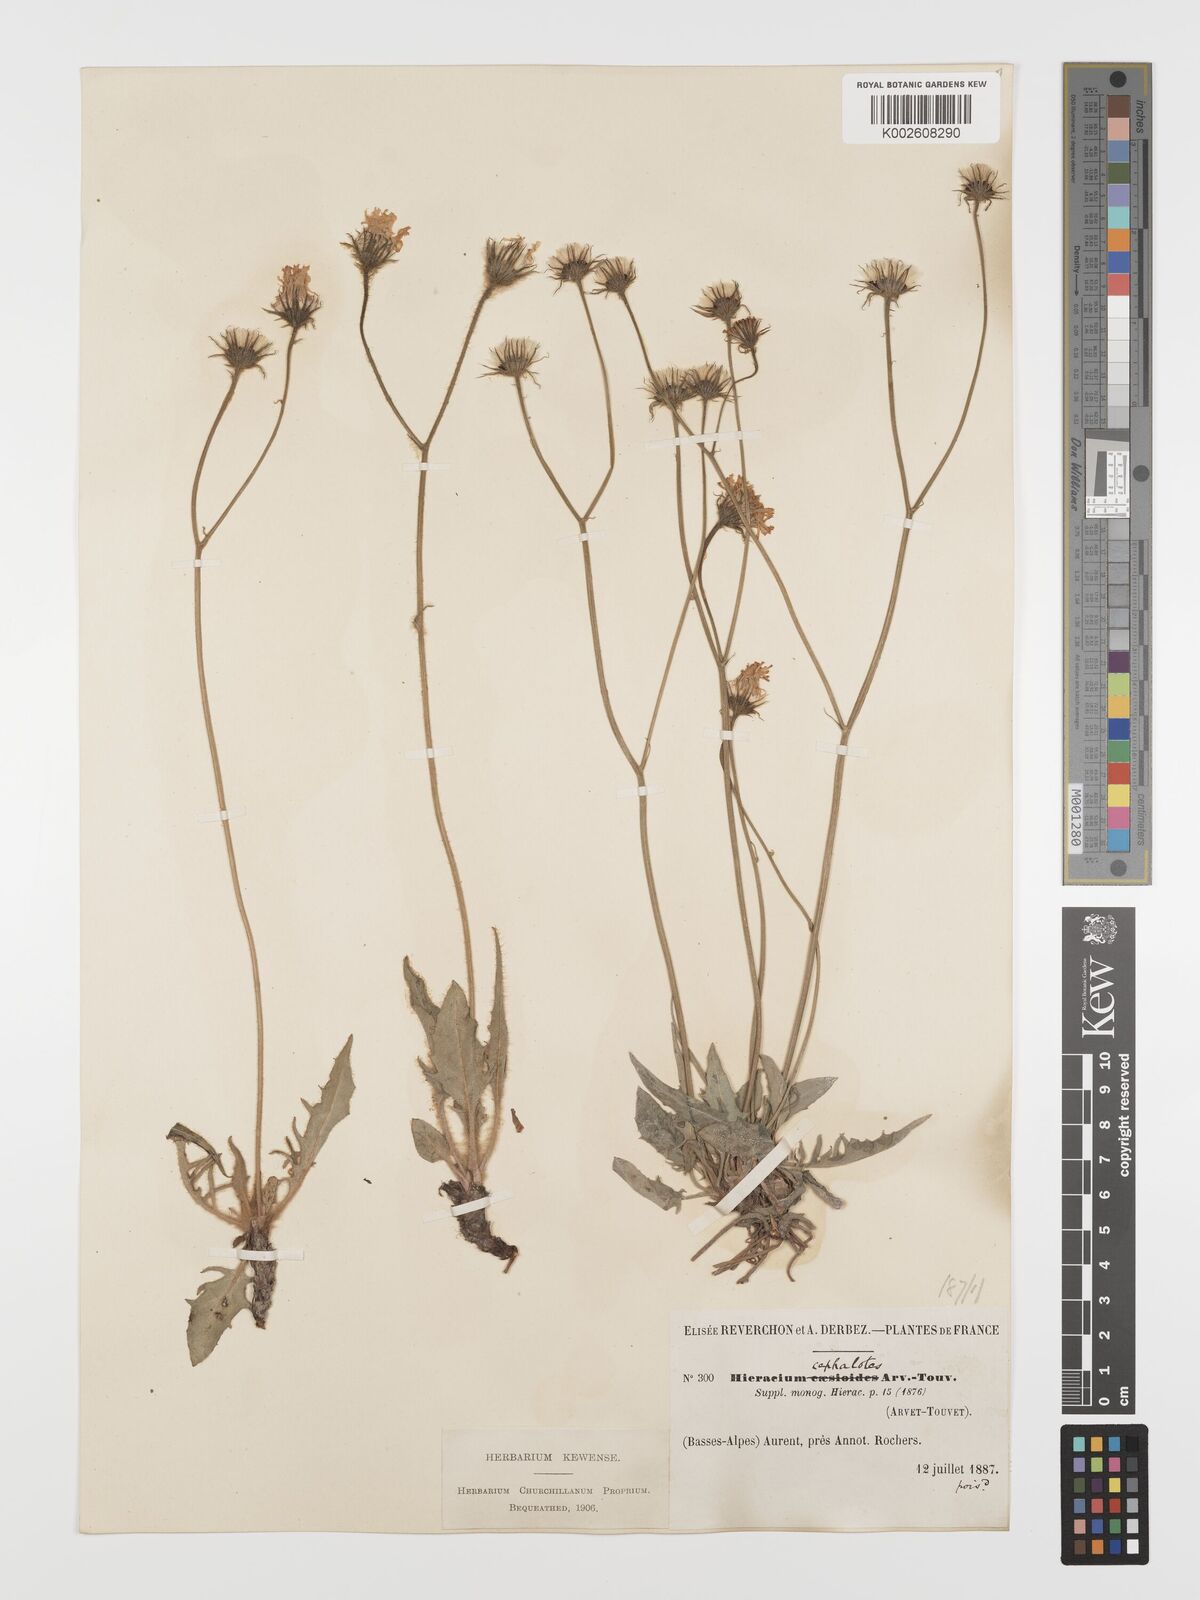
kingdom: Plantae
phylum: Tracheophyta
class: Magnoliopsida
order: Asterales
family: Asteraceae
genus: Hieracium
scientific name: Hieracium cephalotes
